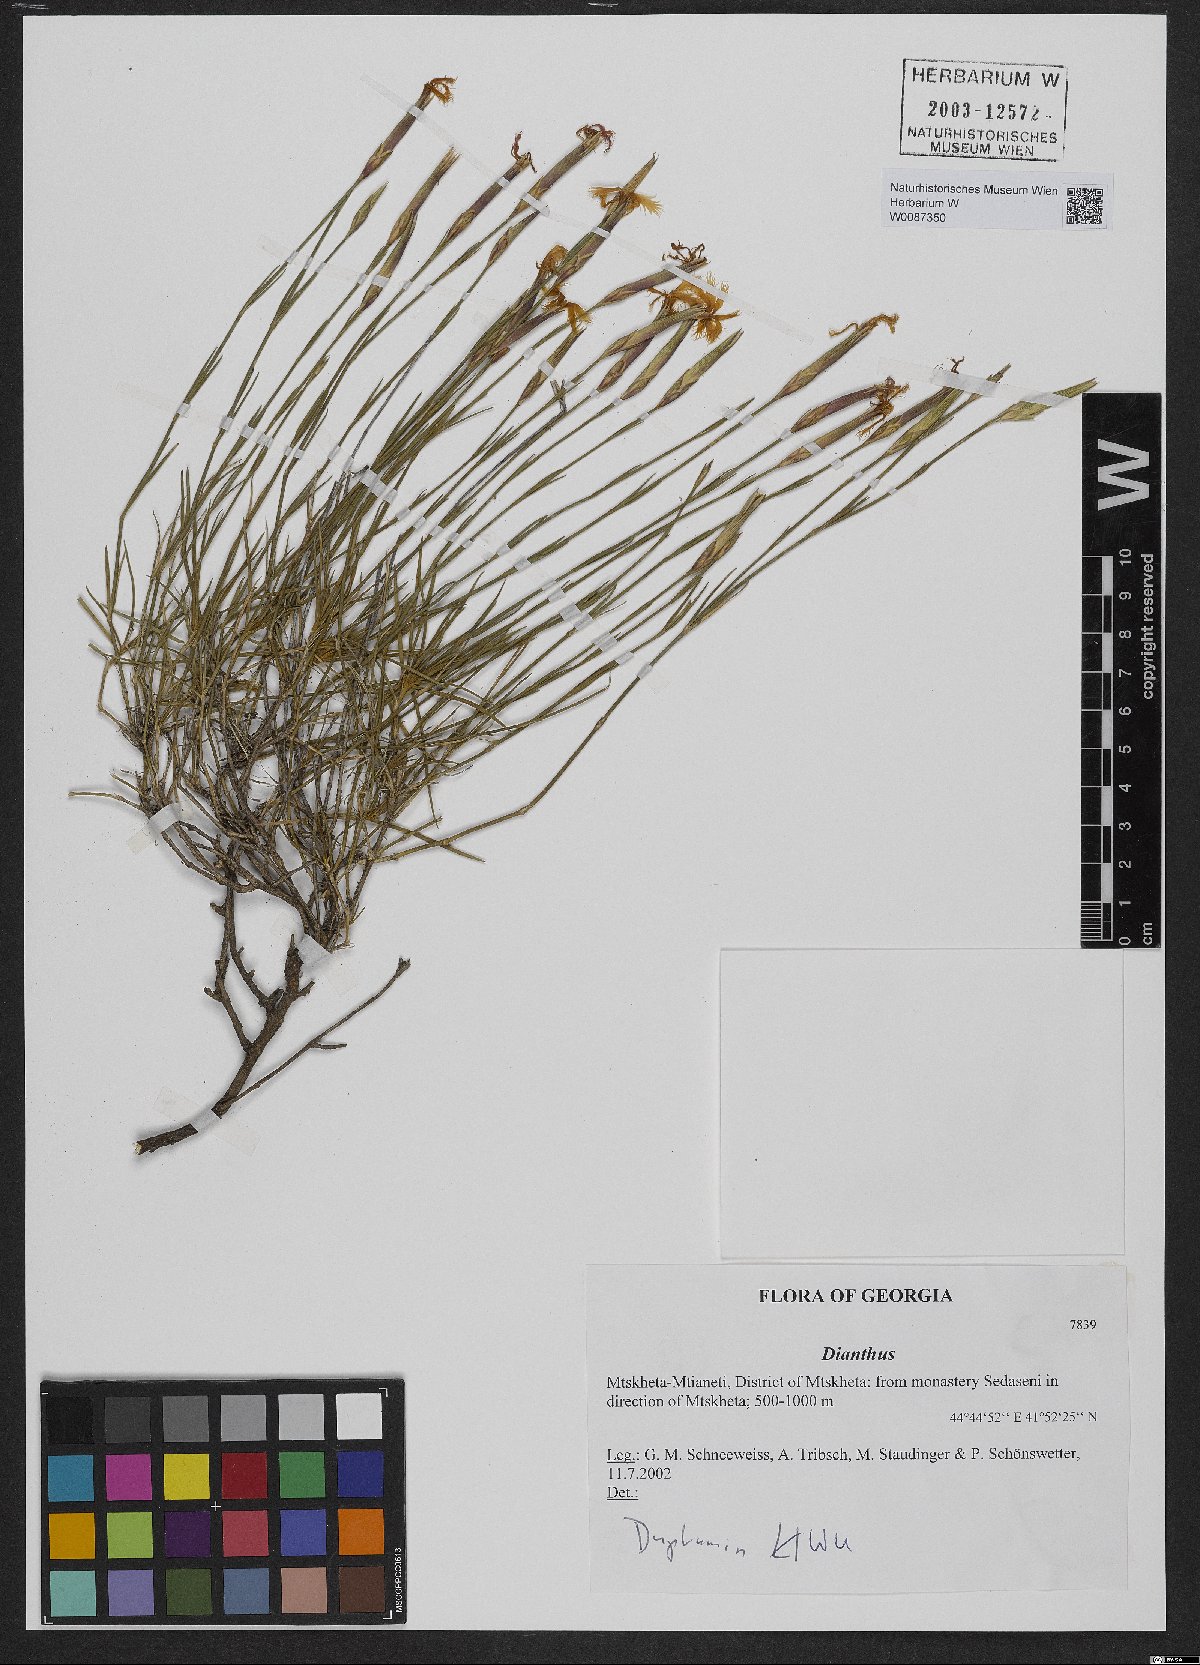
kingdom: Plantae
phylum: Tracheophyta
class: Magnoliopsida
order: Caryophyllales
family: Caryophyllaceae
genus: Dianthus
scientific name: Dianthus
